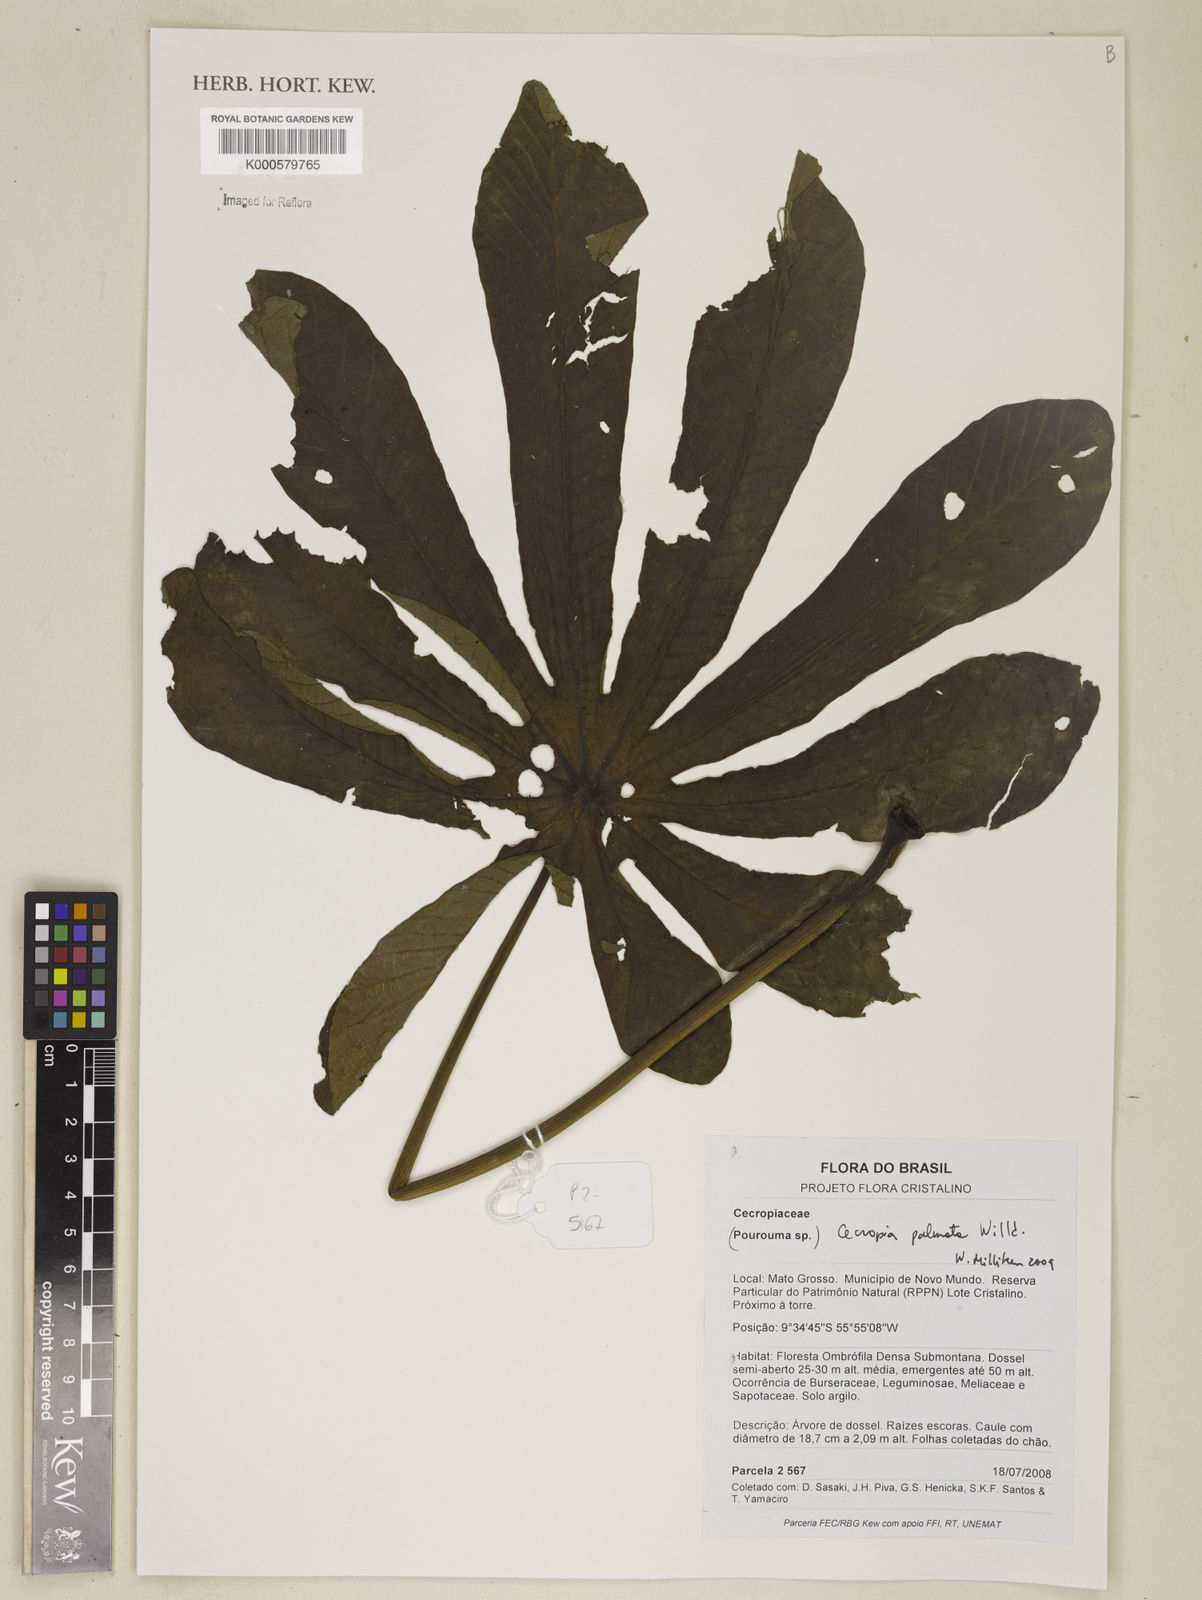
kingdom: Plantae
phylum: Tracheophyta
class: Magnoliopsida
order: Rosales
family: Urticaceae
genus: Cecropia
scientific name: Cecropia palmata
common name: Trumpet tree
